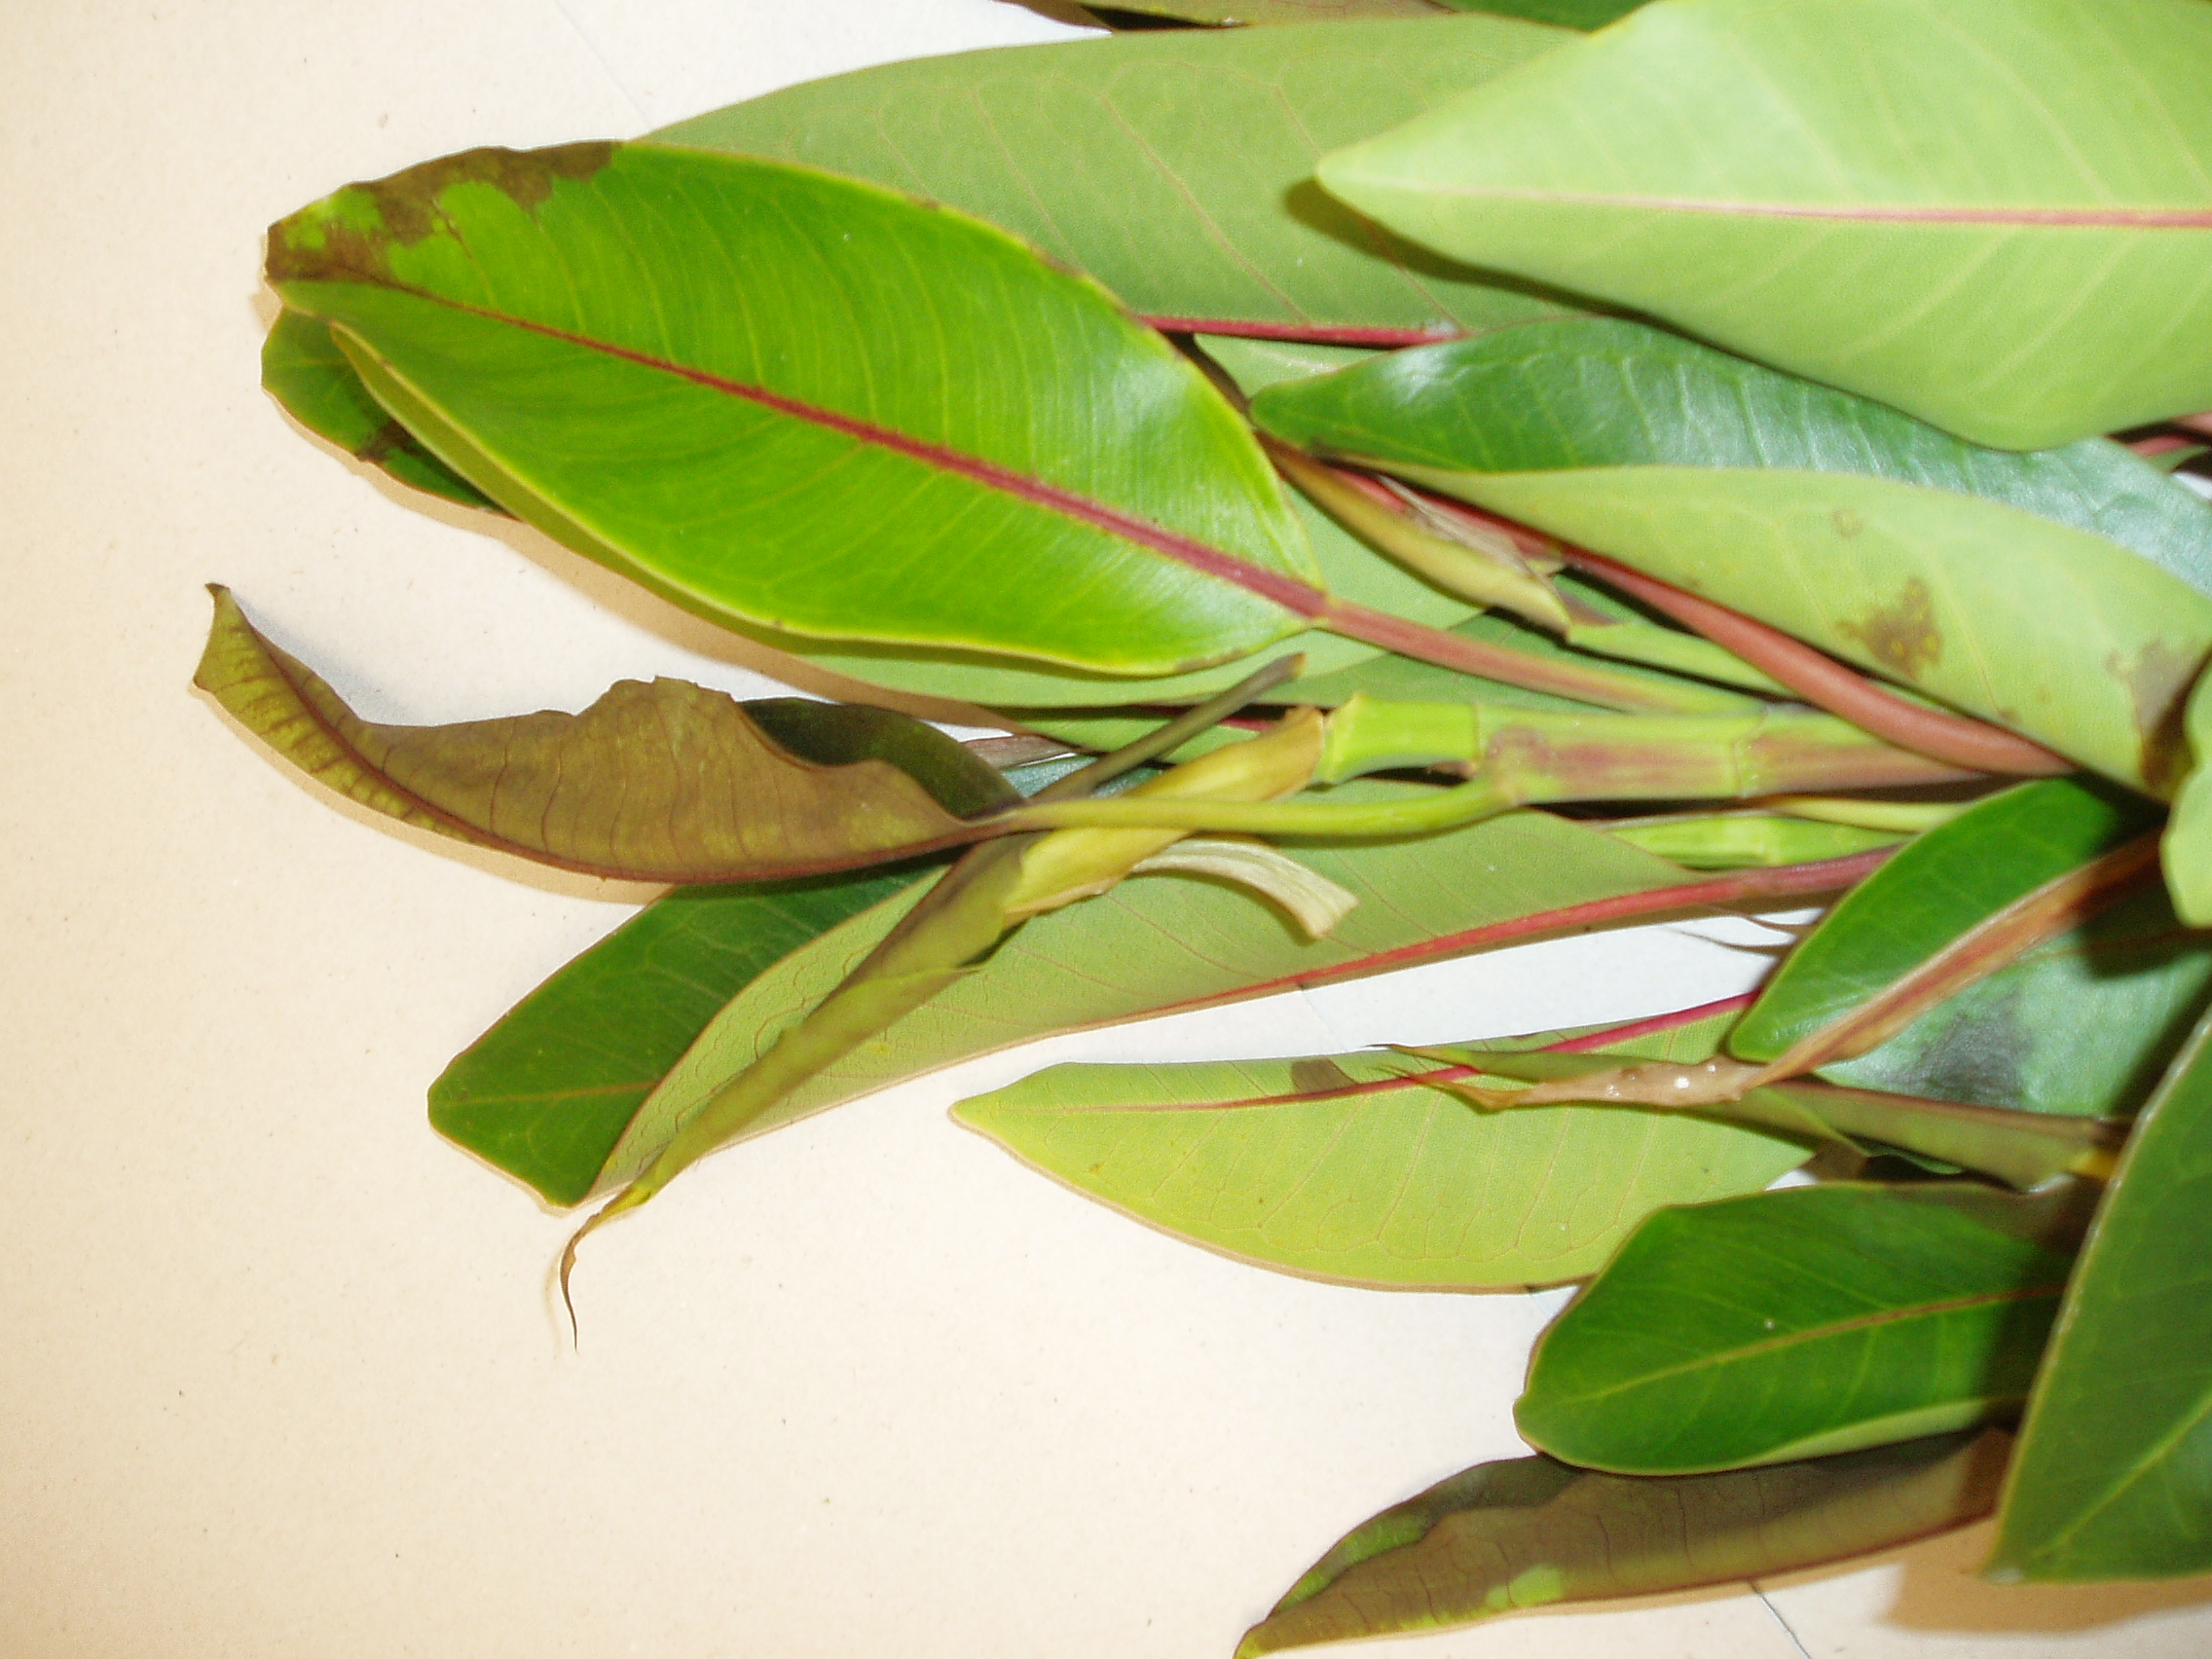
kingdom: Plantae
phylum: Tracheophyta
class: Magnoliopsida
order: Rosales
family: Moraceae
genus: Ficus
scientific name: Ficus watkinsiana
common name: Watkins fig
